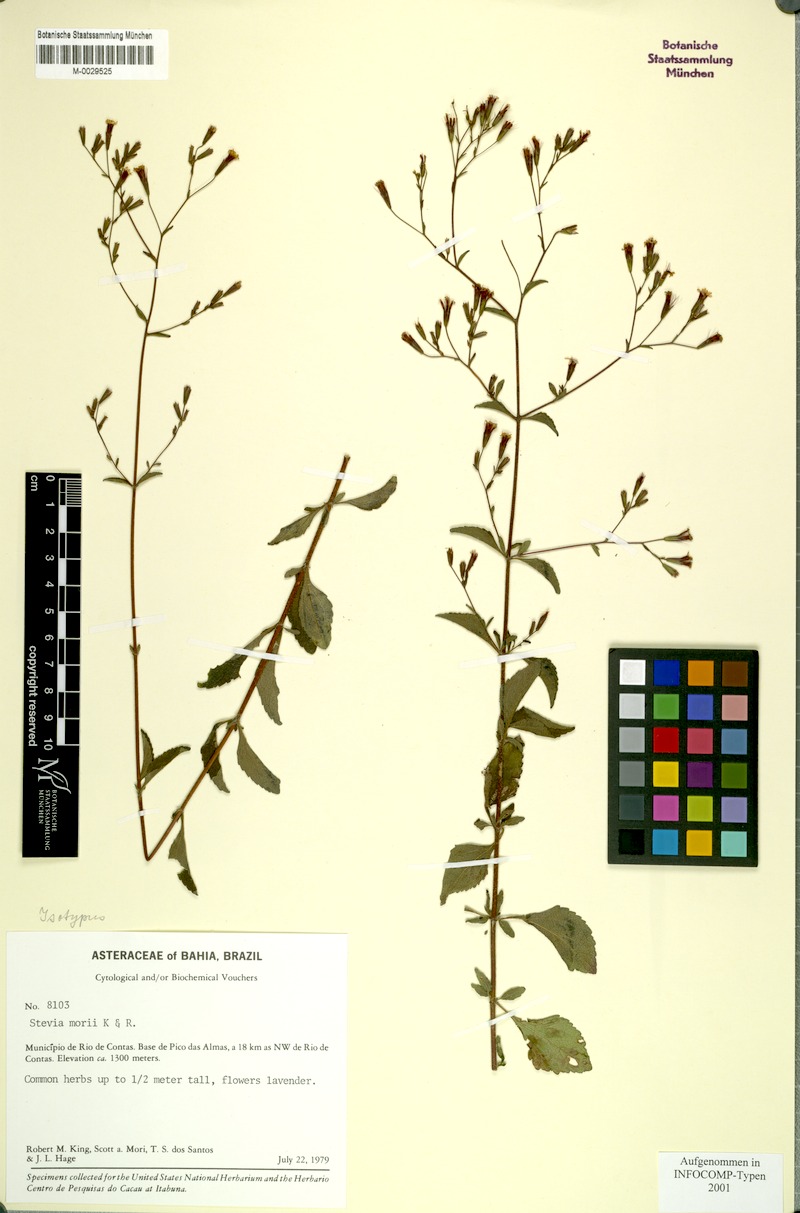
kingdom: Plantae
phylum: Tracheophyta
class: Magnoliopsida
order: Asterales
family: Asteraceae
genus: Stevia
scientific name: Stevia morii
